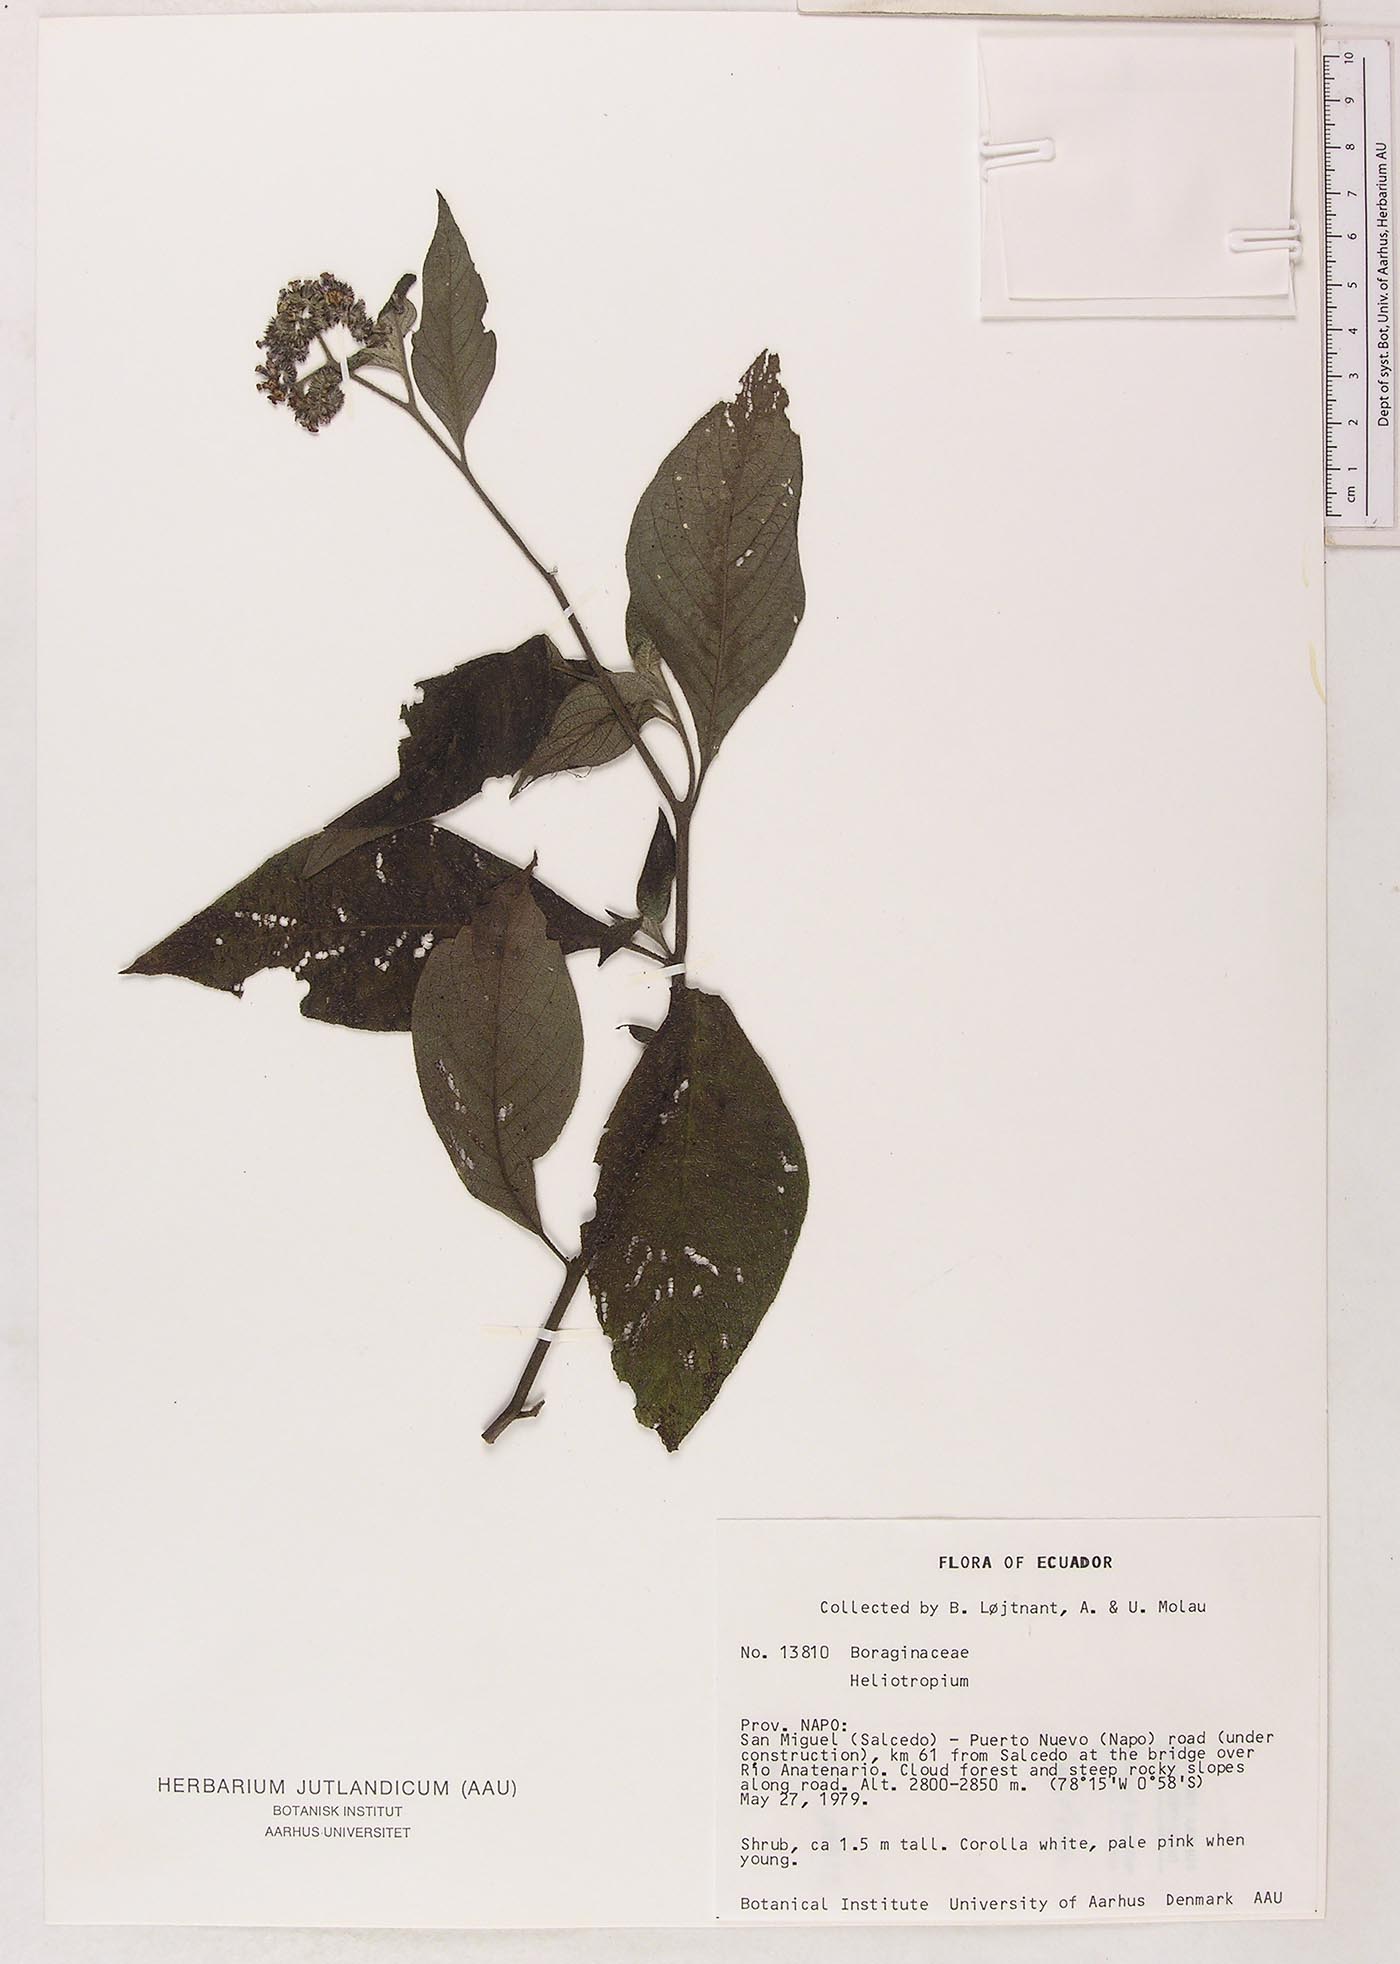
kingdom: Plantae
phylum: Tracheophyta
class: Magnoliopsida
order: Boraginales
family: Heliotropiaceae
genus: Heliotropium
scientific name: Heliotropium
